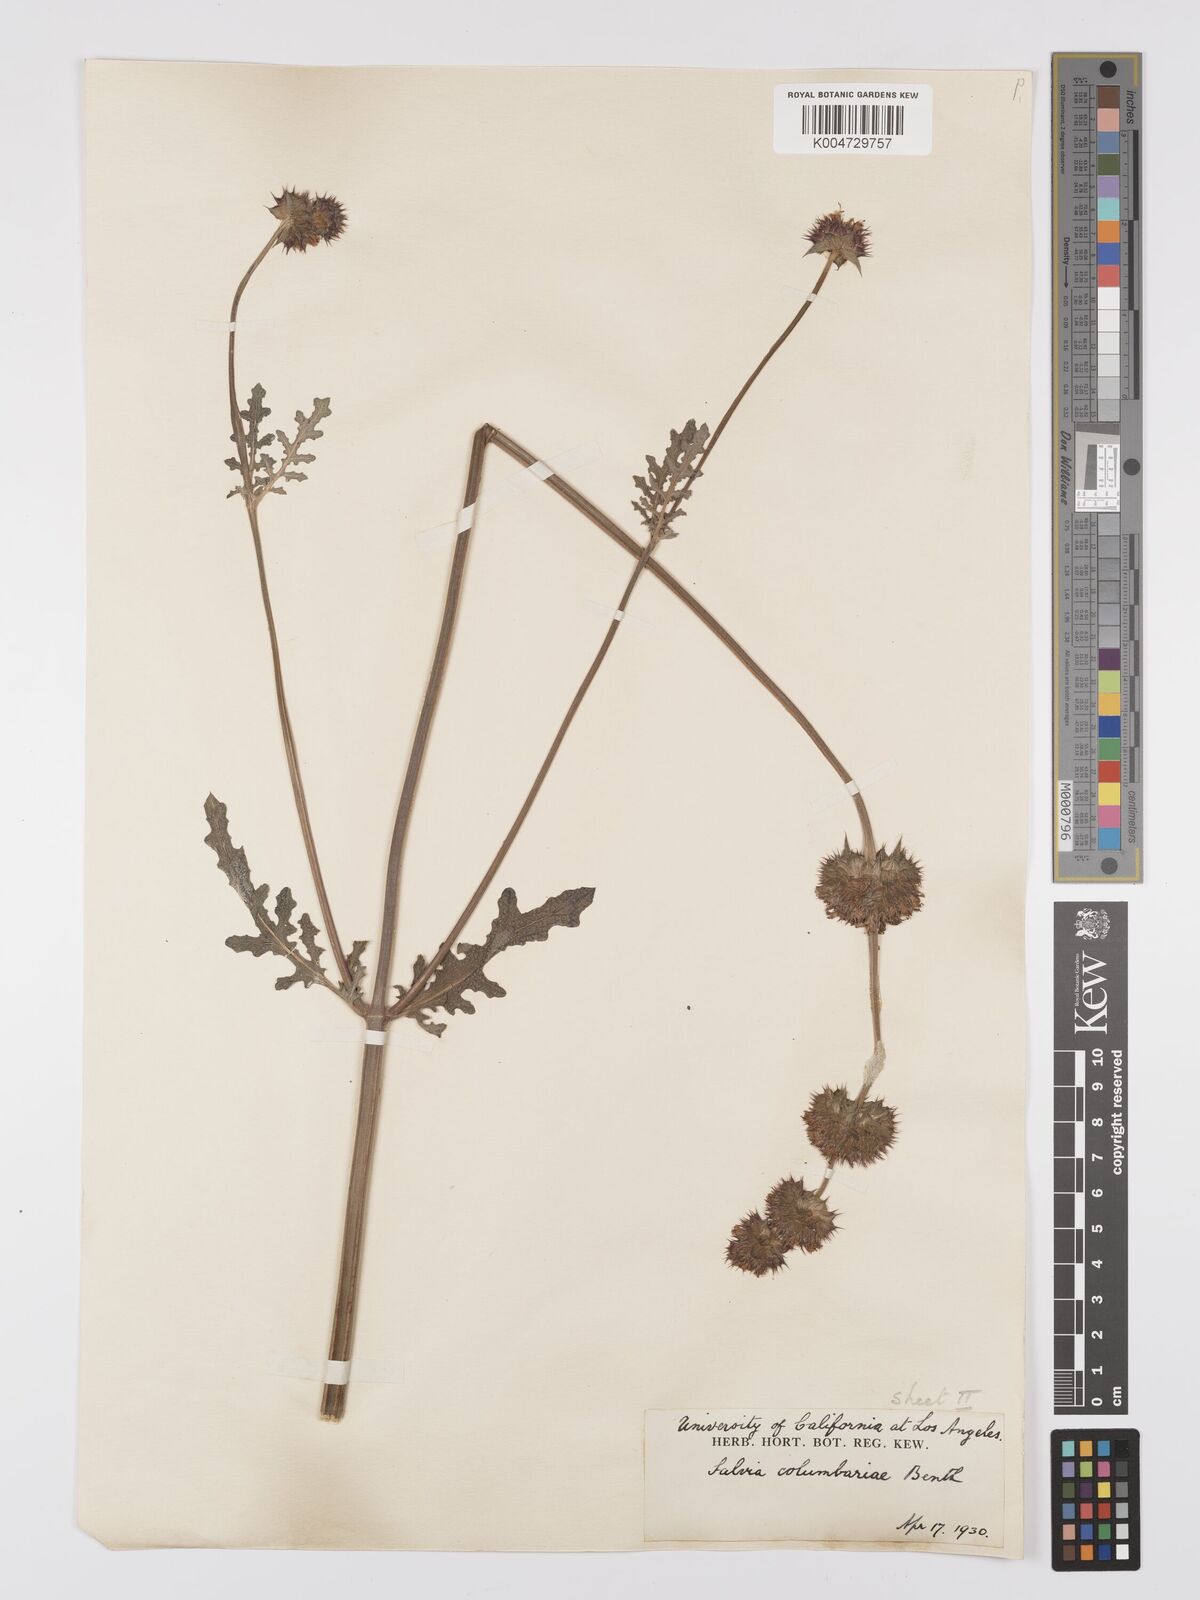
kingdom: Plantae
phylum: Tracheophyta
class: Magnoliopsida
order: Lamiales
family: Lamiaceae
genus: Salvia
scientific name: Salvia columbariae
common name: Chia
